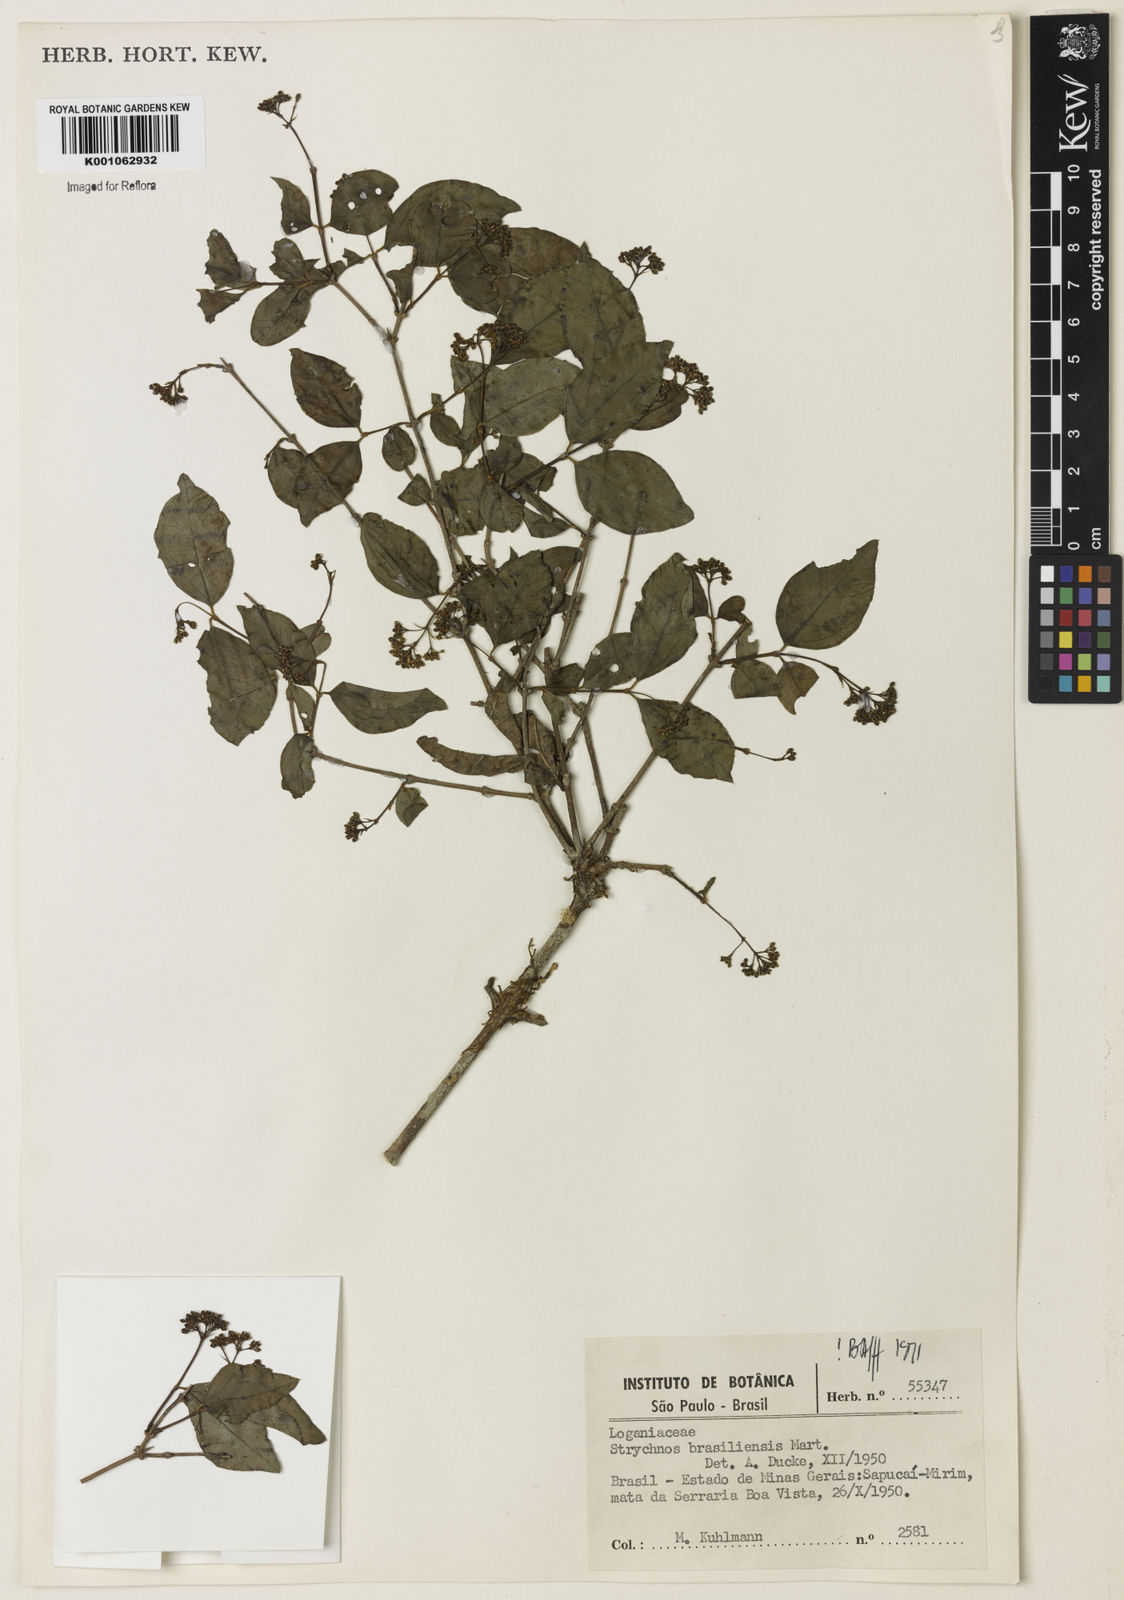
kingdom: Plantae
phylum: Tracheophyta
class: Magnoliopsida
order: Gentianales
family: Loganiaceae
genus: Strychnos
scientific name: Strychnos brasiliensis
